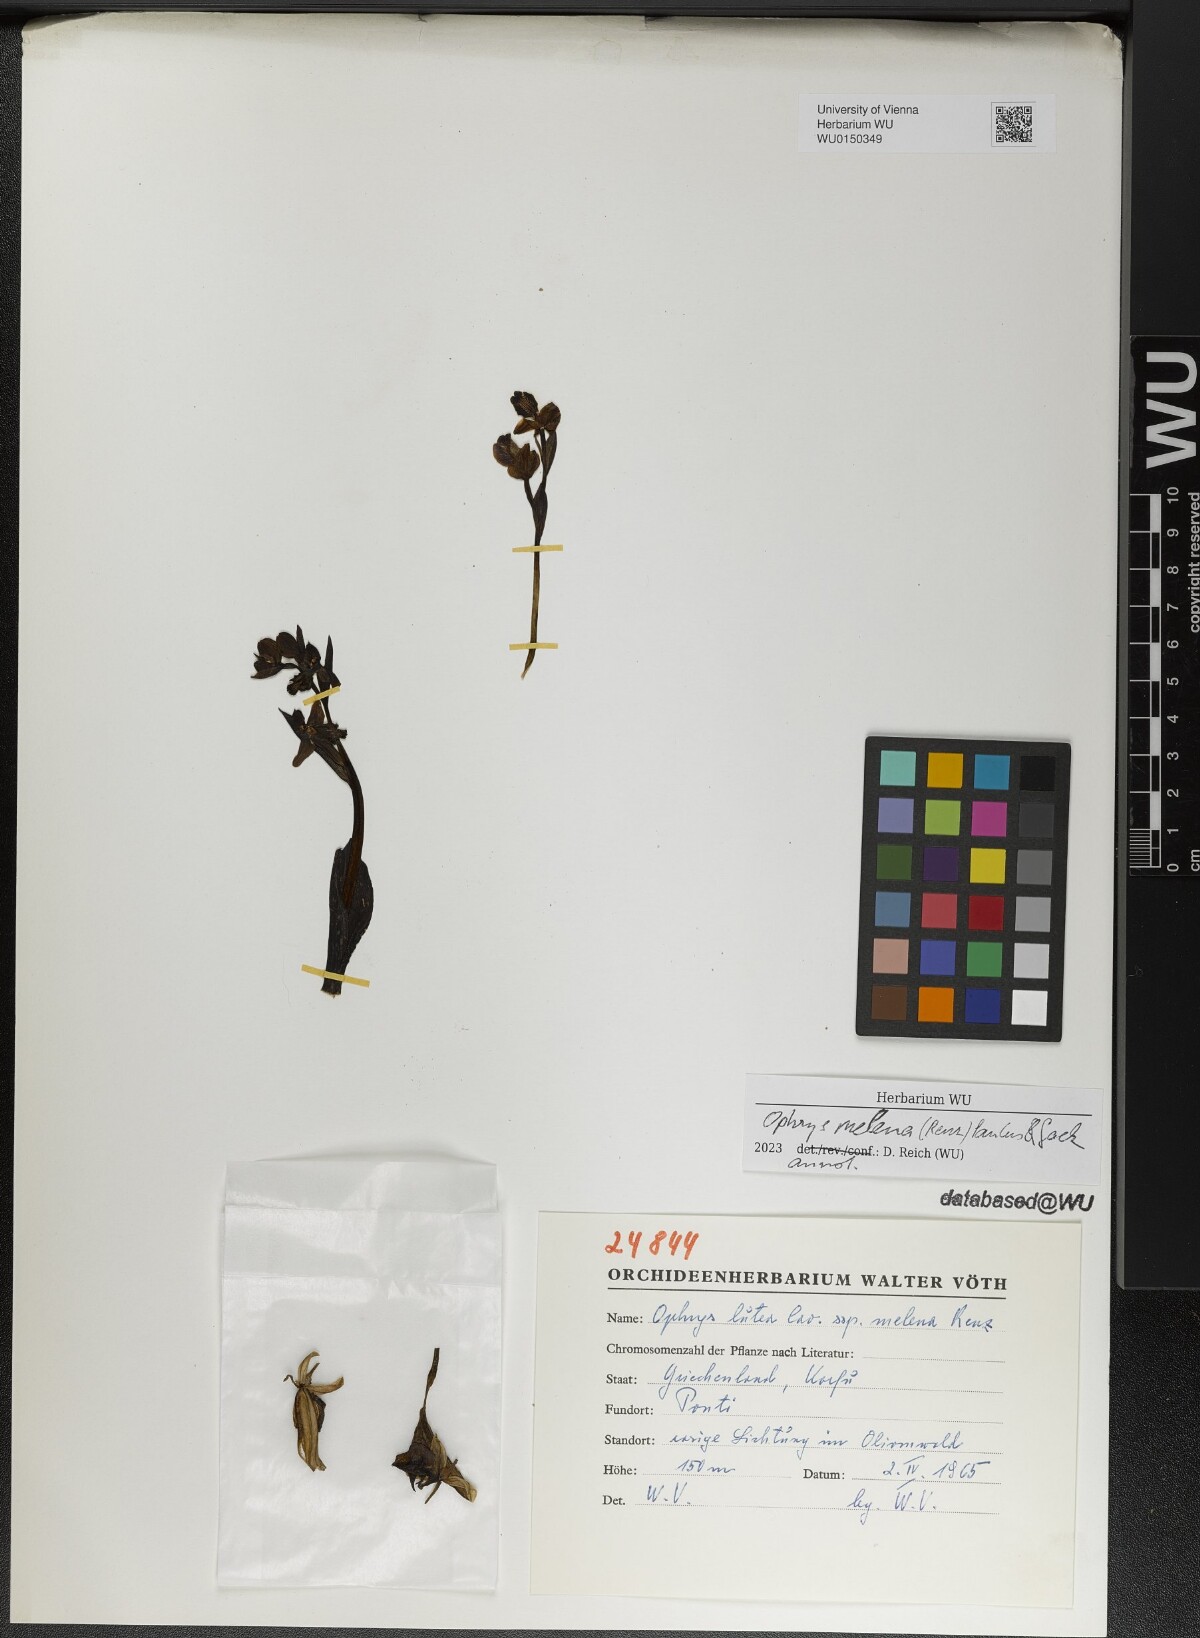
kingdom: Plantae
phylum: Tracheophyta
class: Liliopsida
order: Asparagales
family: Orchidaceae
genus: Ophrys
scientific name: Ophrys lutea
